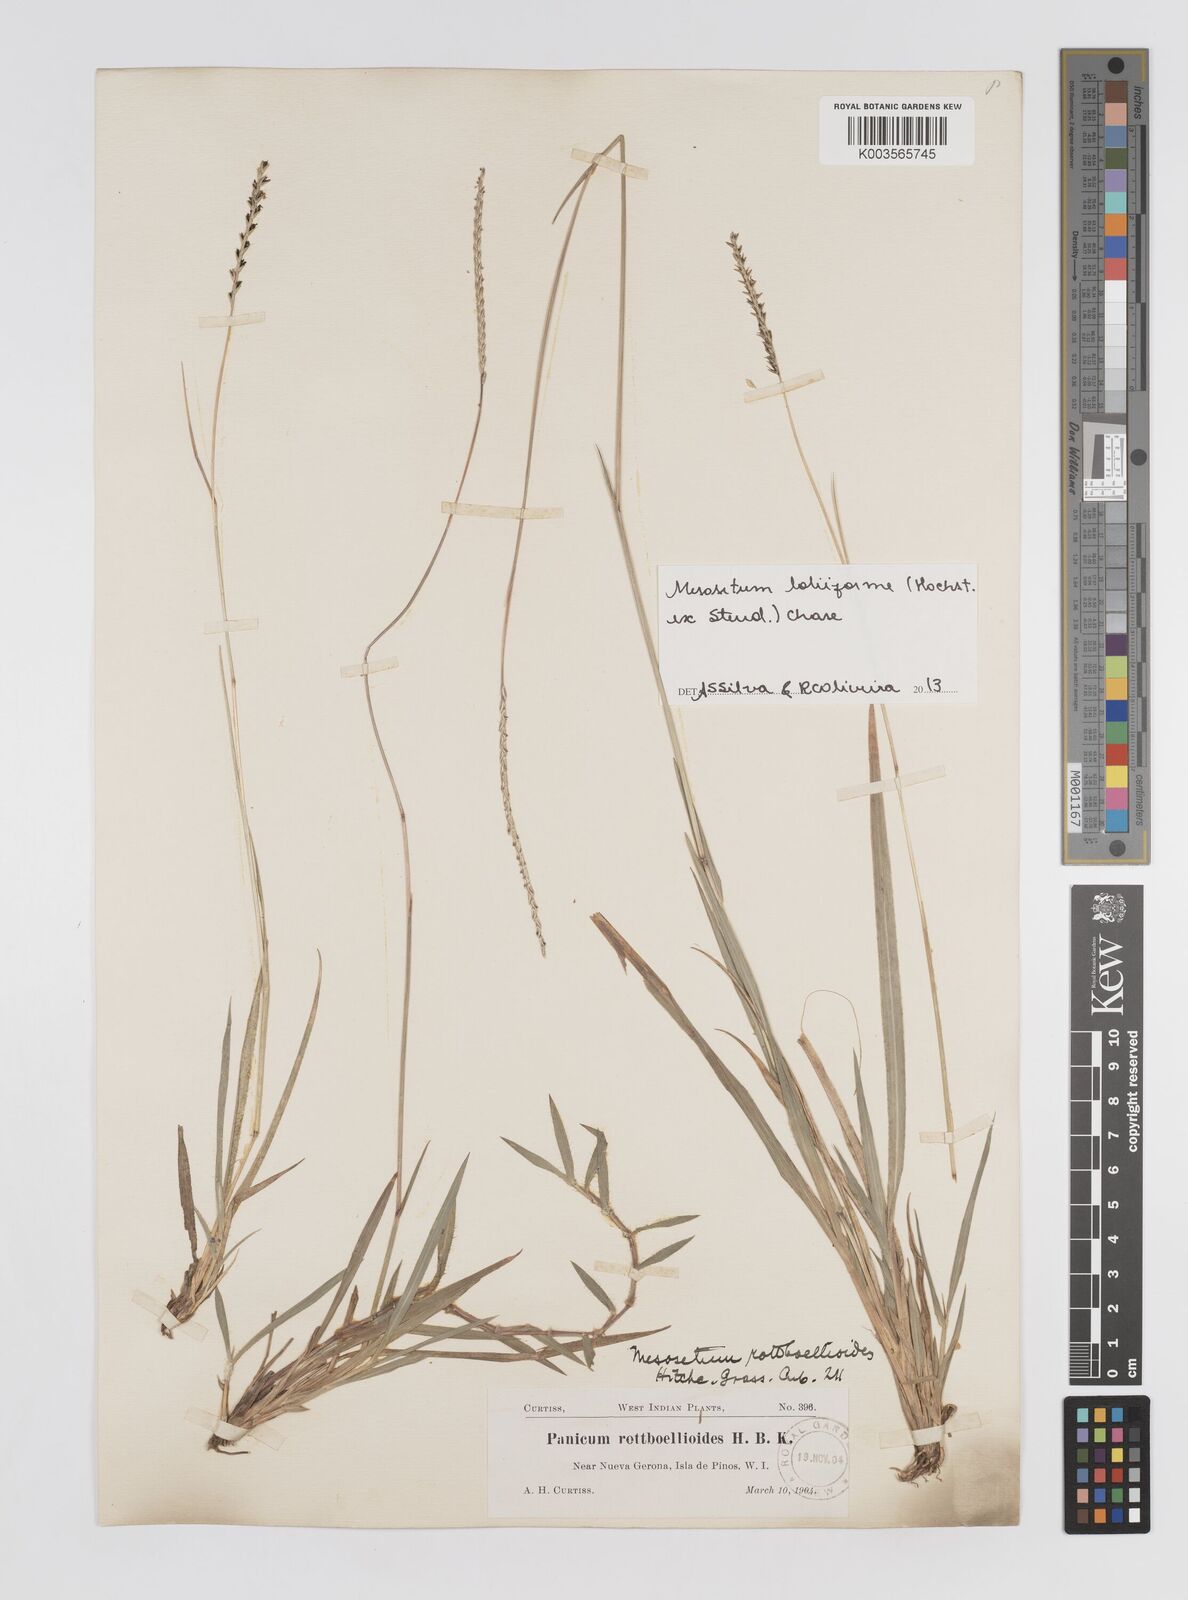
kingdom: Plantae
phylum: Tracheophyta
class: Liliopsida
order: Poales
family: Poaceae
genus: Mesosetum
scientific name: Mesosetum loliiforme
